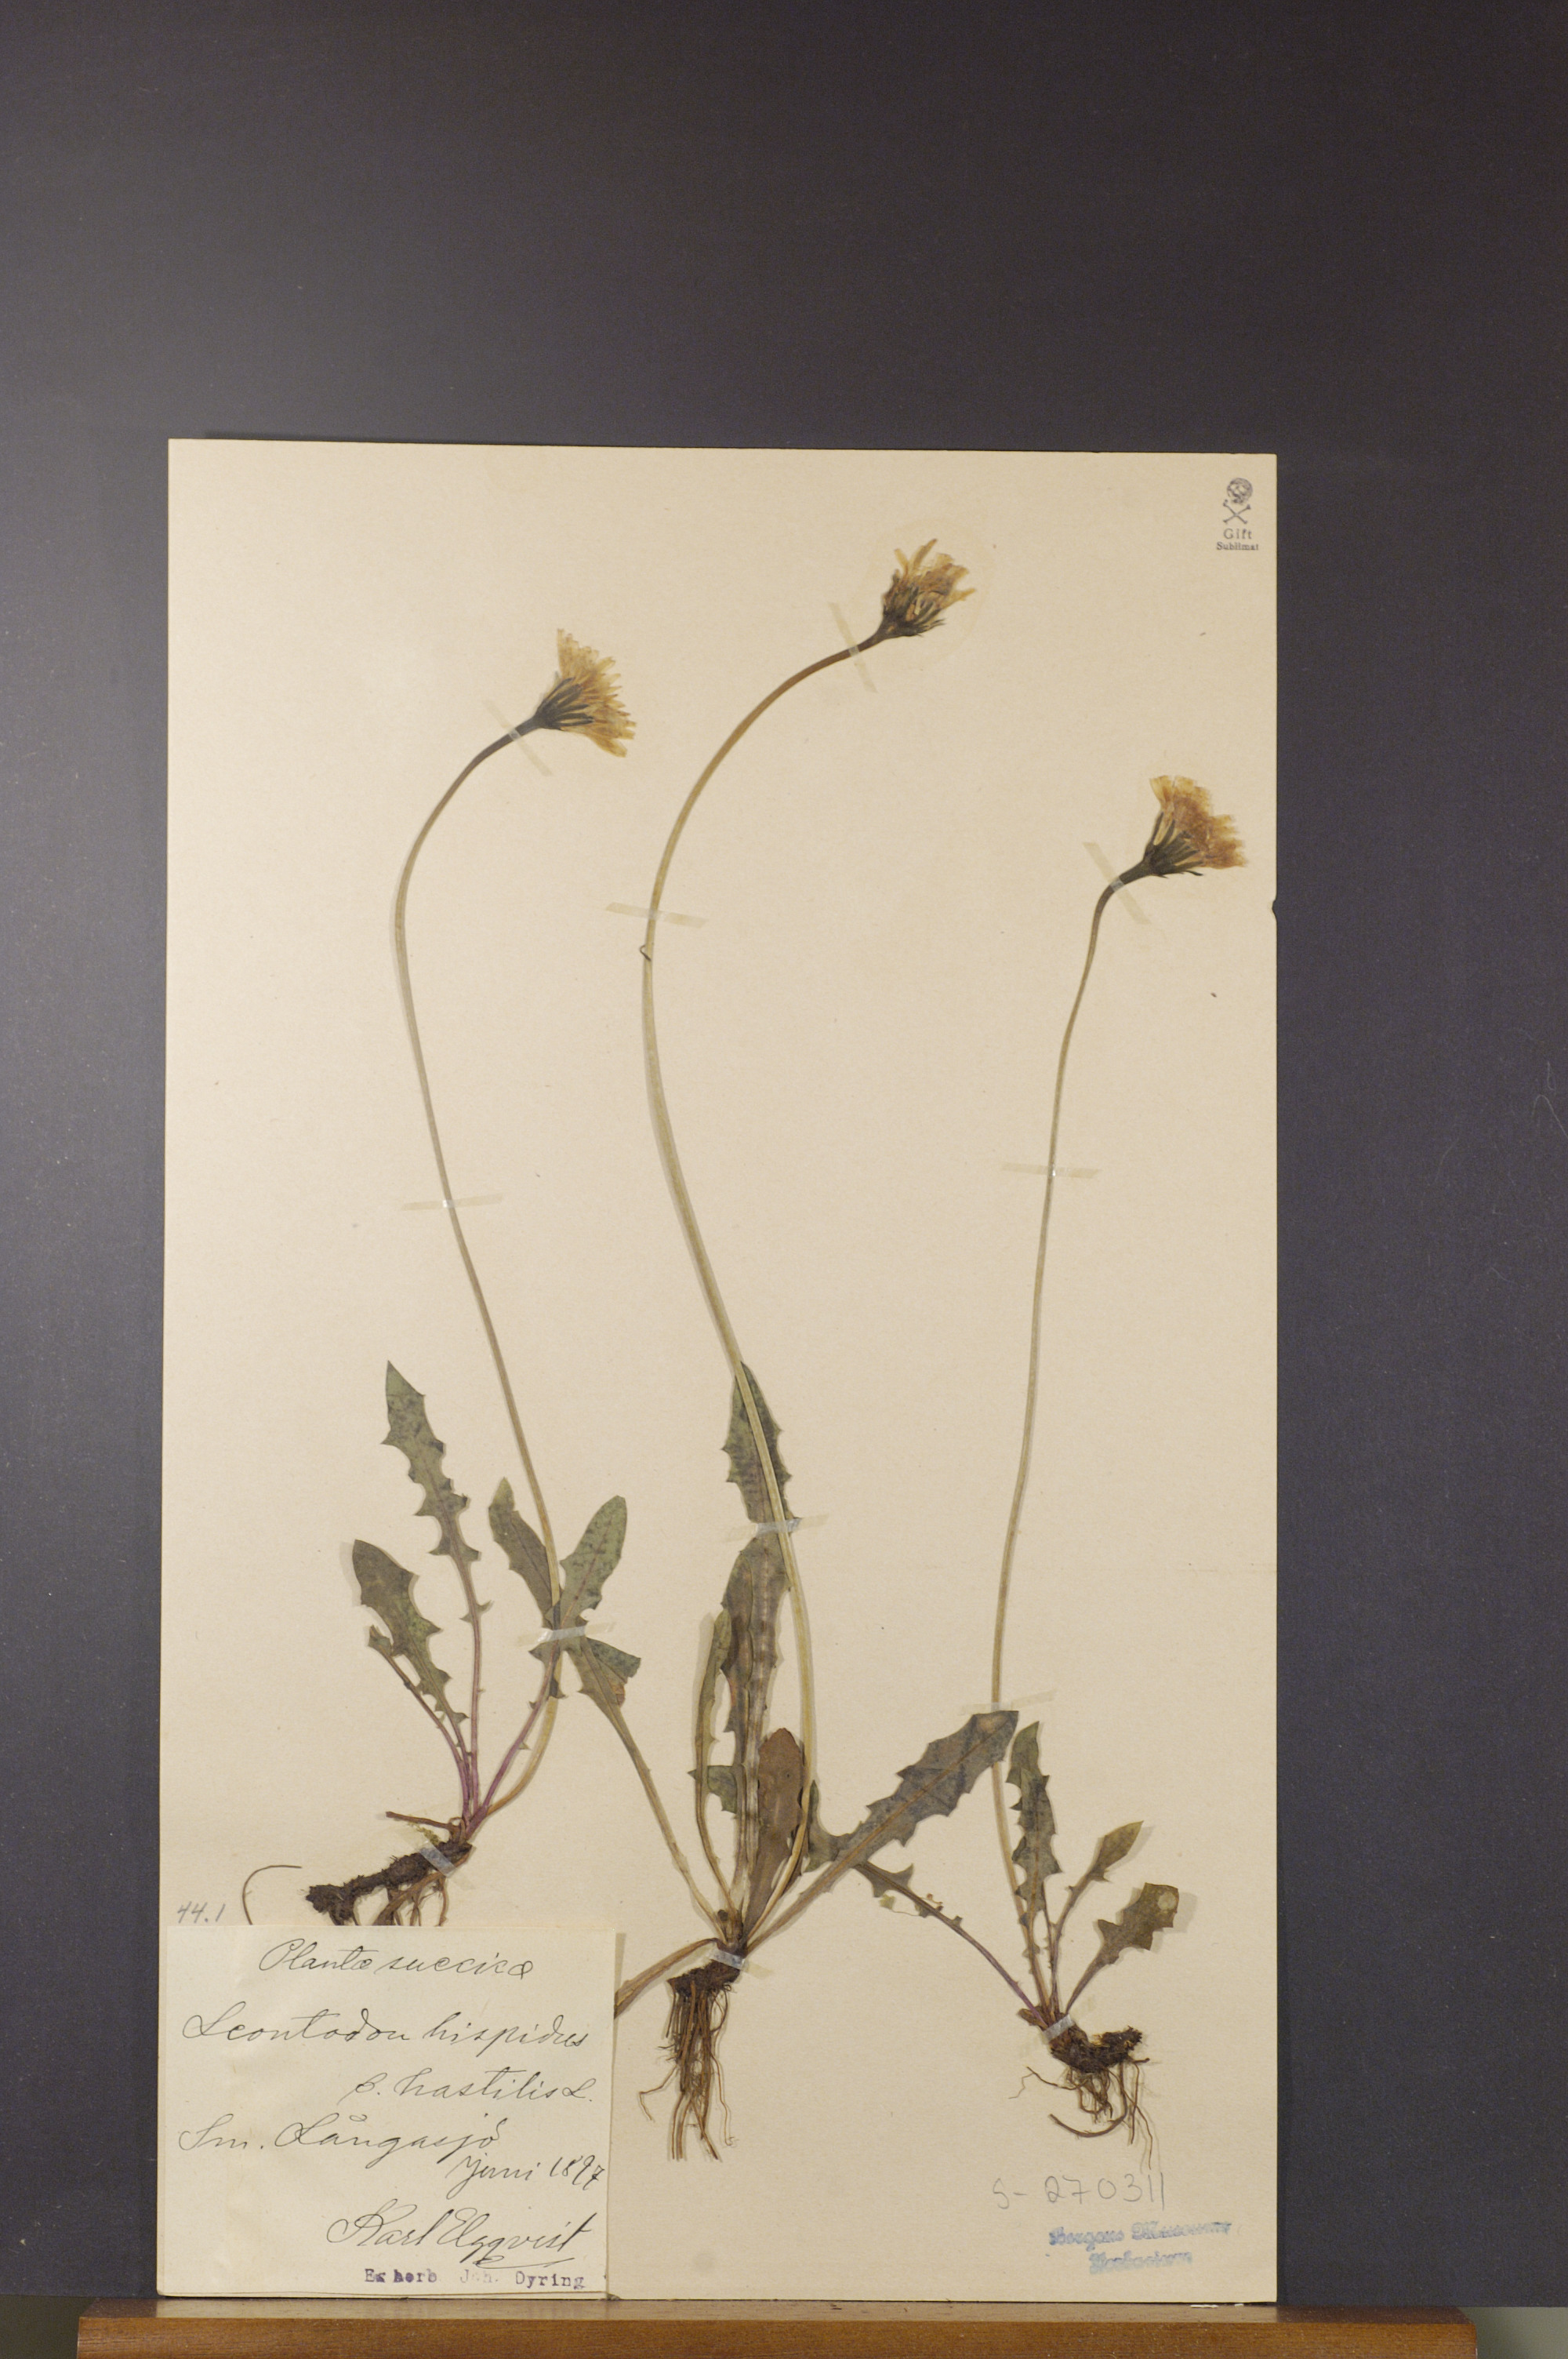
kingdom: Plantae
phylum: Tracheophyta
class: Magnoliopsida
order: Asterales
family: Asteraceae
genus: Leontodon
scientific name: Leontodon hispidus
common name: Rough hawkbit
